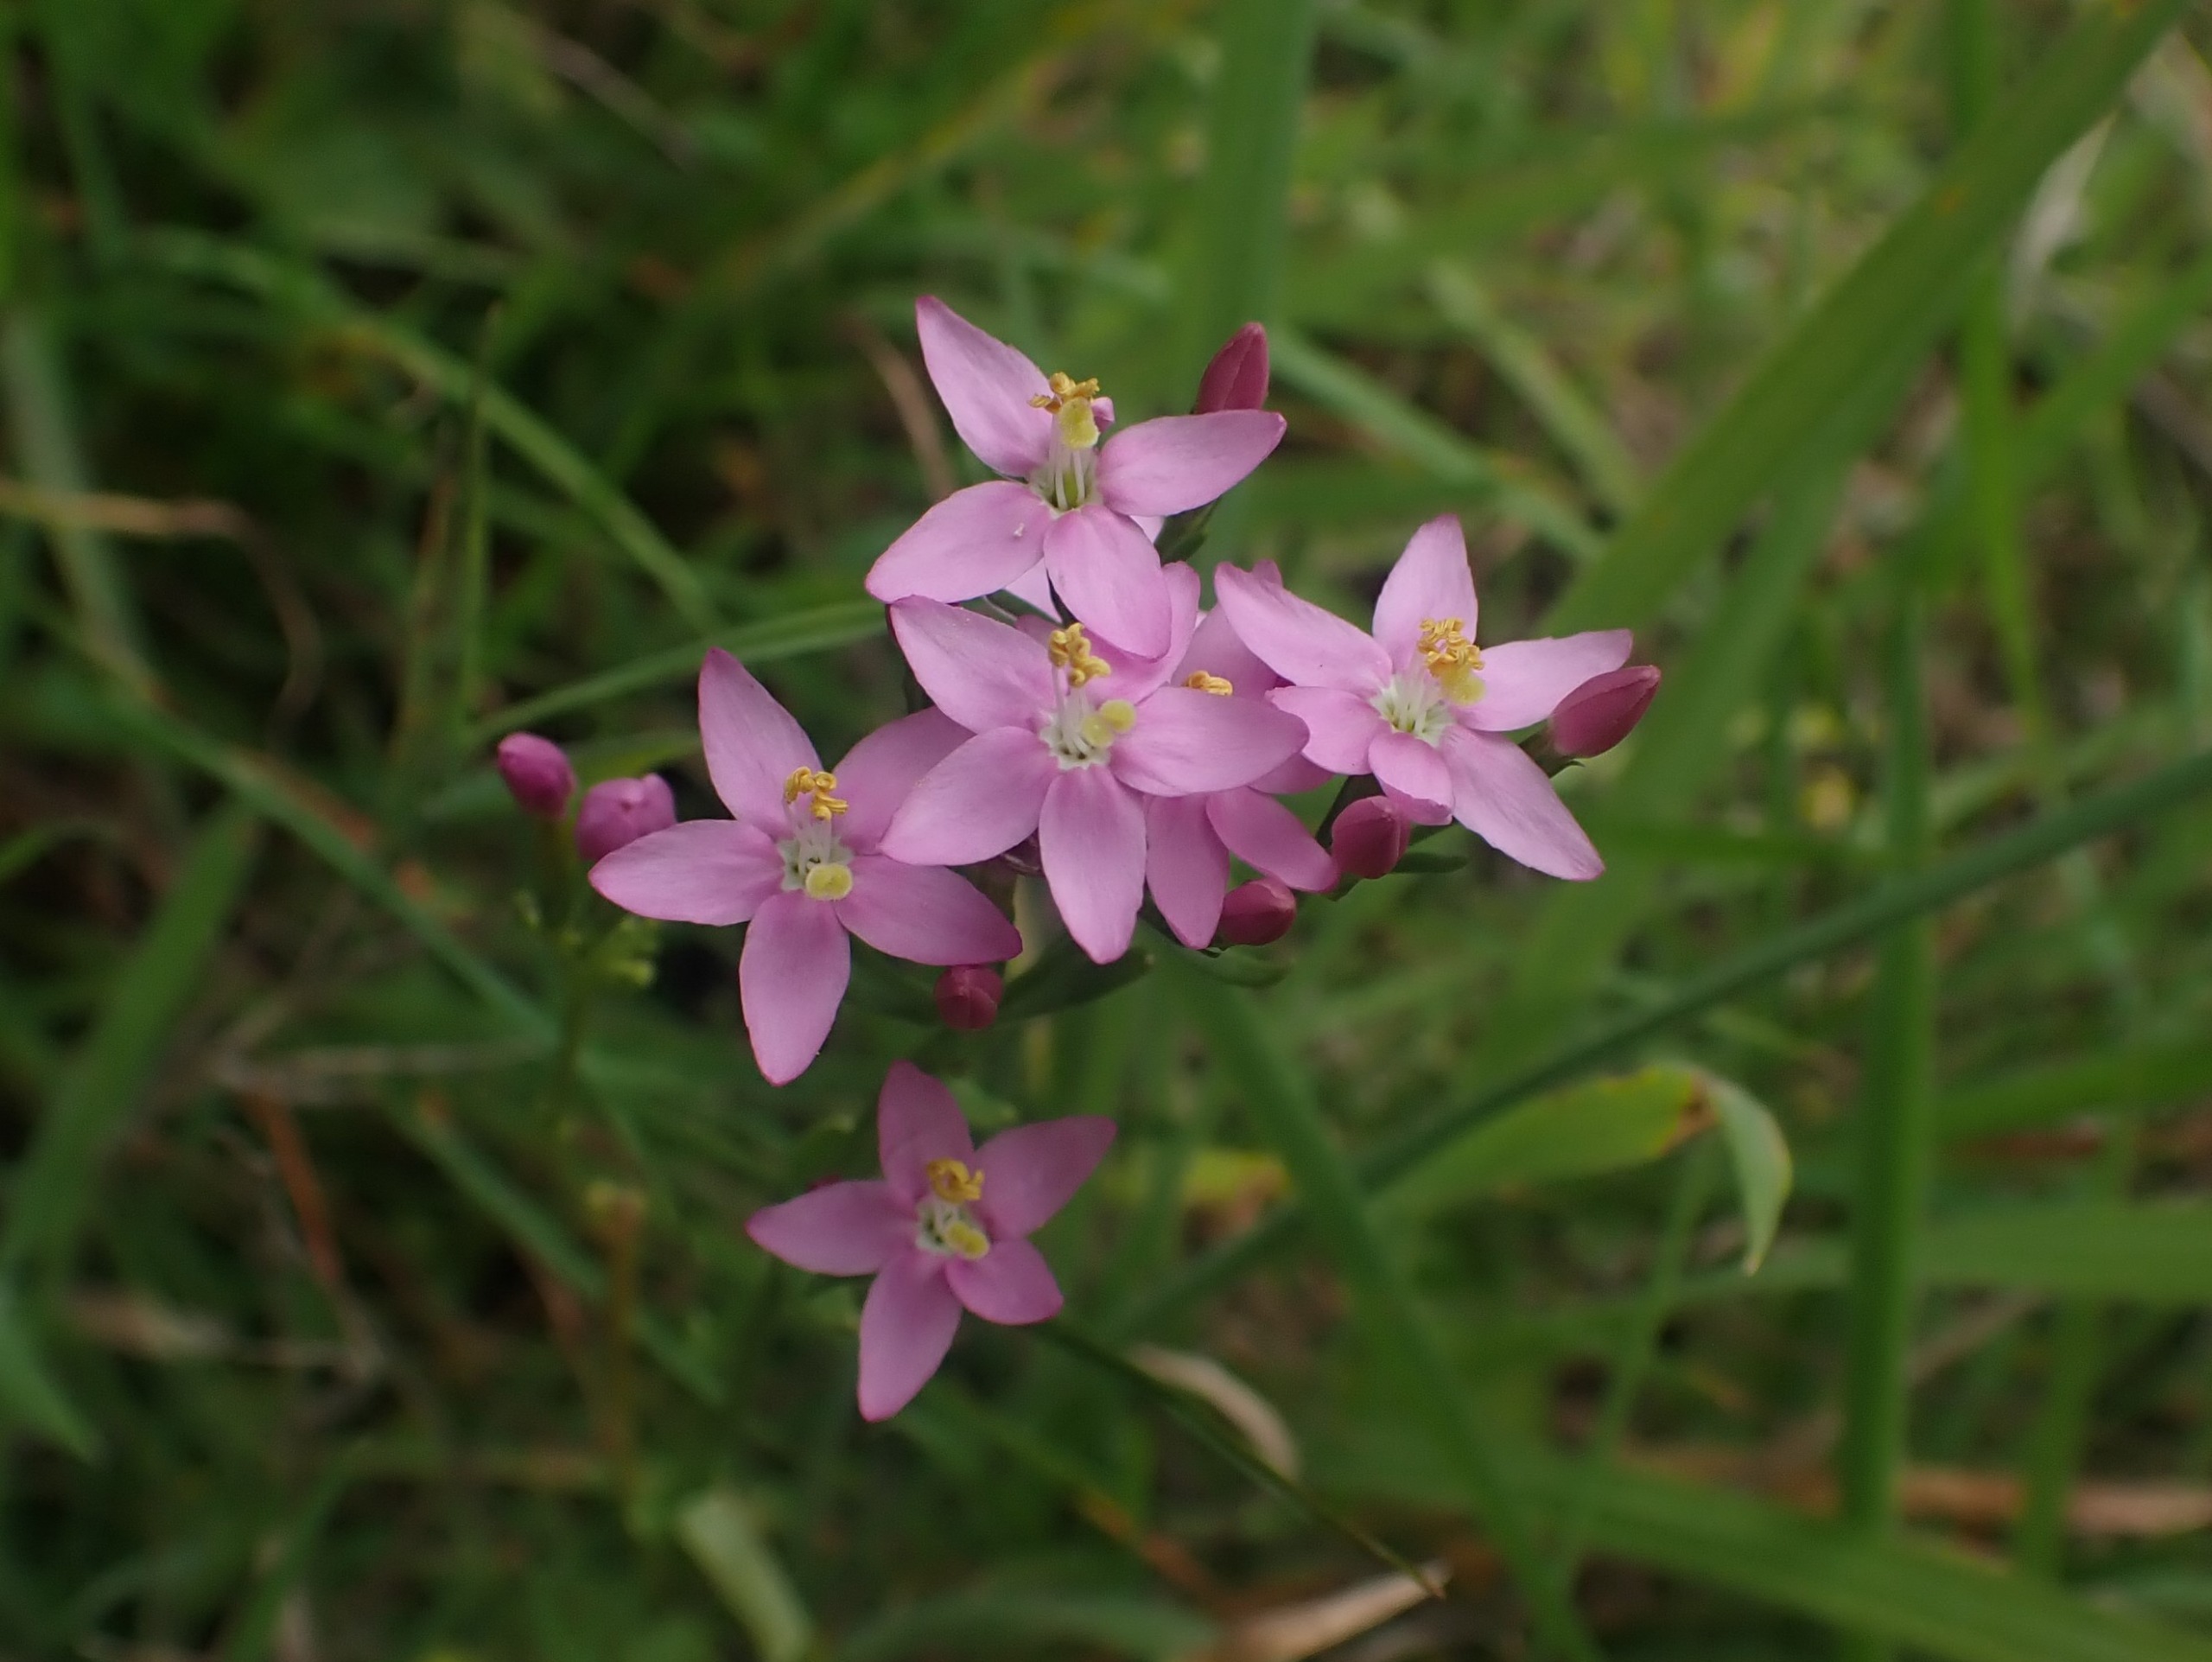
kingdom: Plantae
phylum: Tracheophyta
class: Magnoliopsida
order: Gentianales
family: Gentianaceae
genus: Centaurium
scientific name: Centaurium erythraea
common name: Mark-tusindgylden
